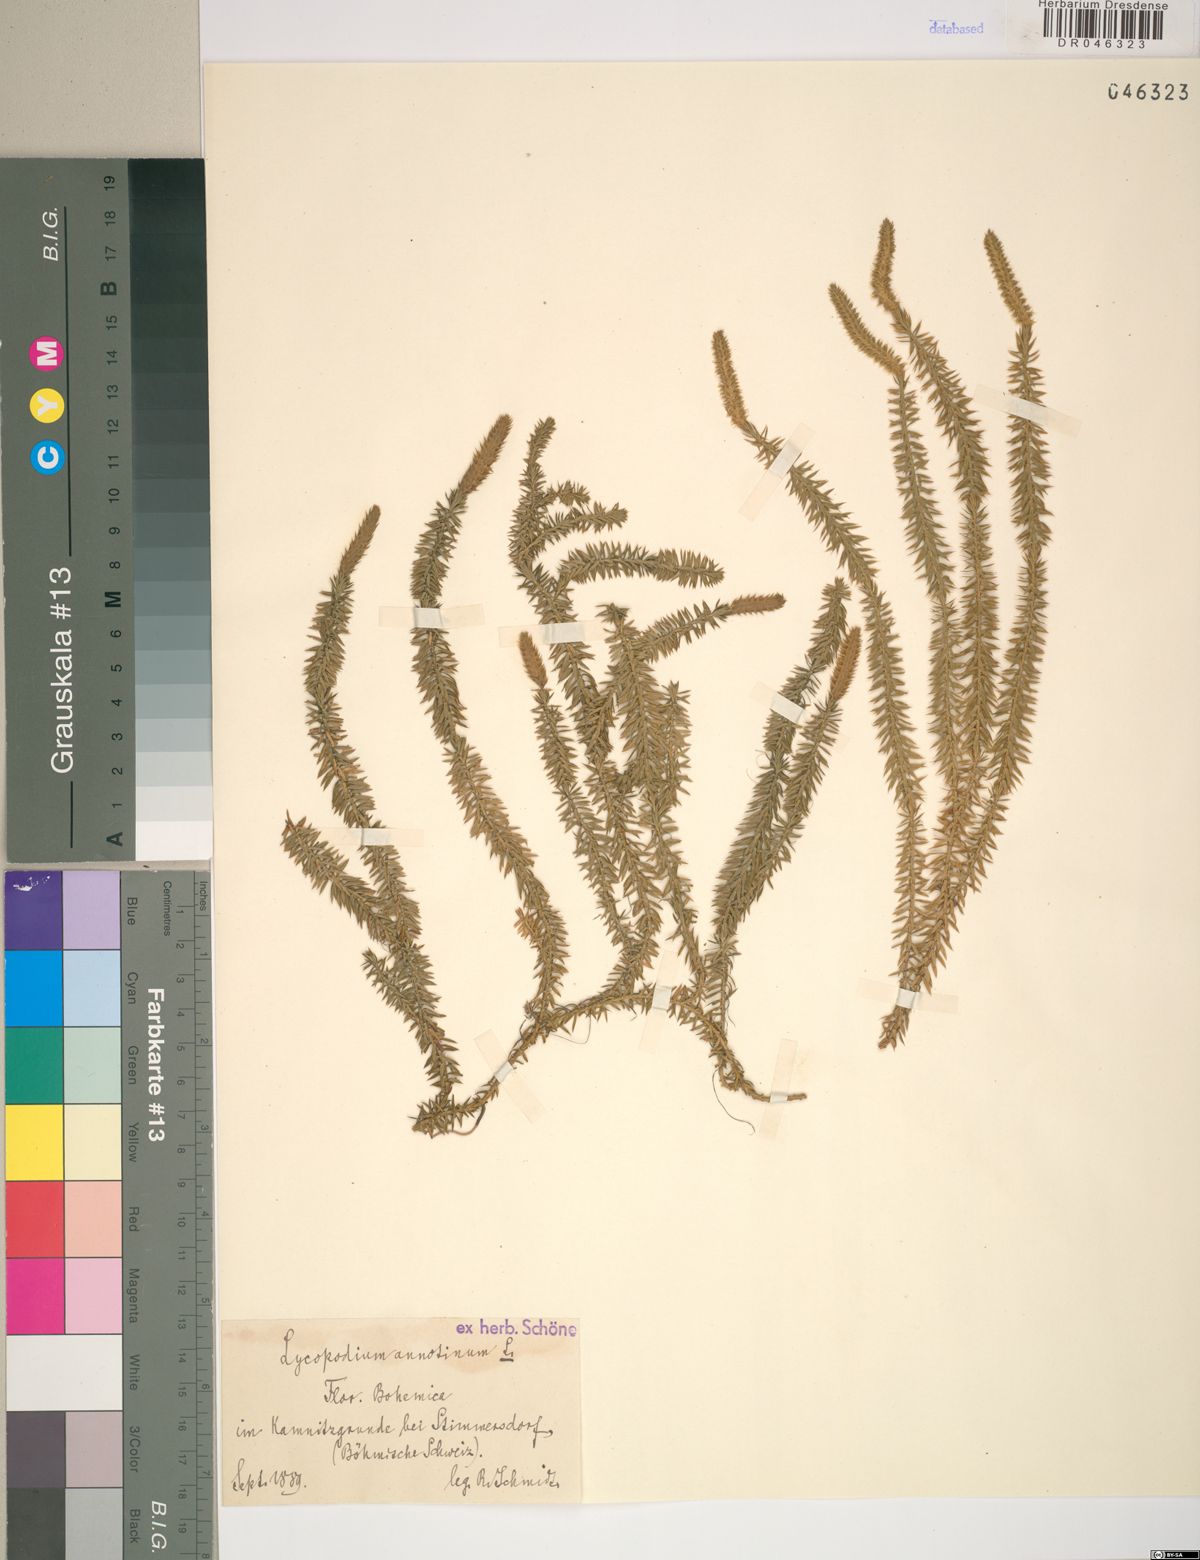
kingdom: Plantae
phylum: Tracheophyta
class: Lycopodiopsida
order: Lycopodiales
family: Lycopodiaceae
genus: Spinulum
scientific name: Spinulum annotinum
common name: Interrupted club-moss
